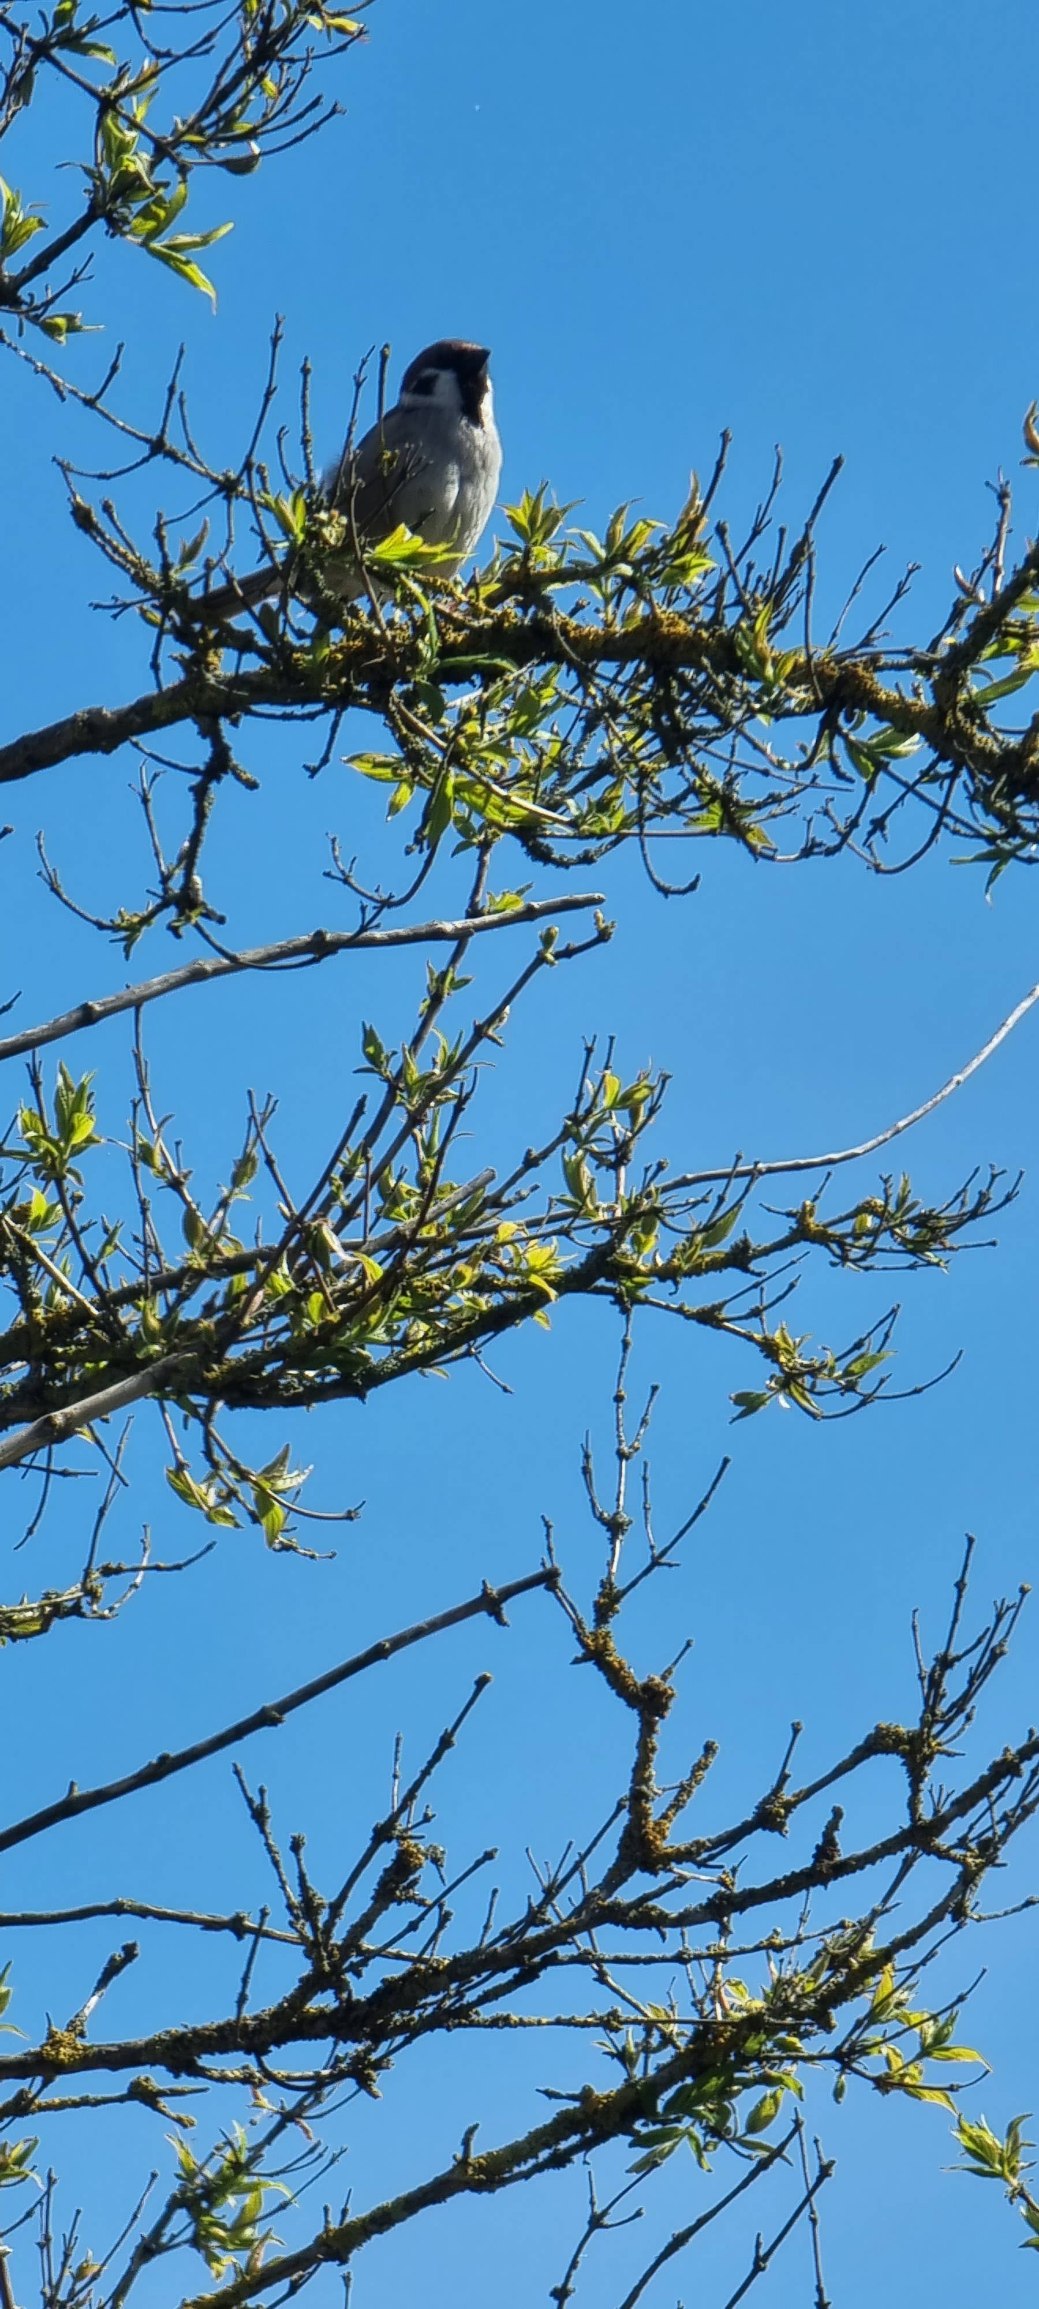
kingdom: Animalia
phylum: Chordata
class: Aves
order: Passeriformes
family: Passeridae
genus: Passer
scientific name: Passer montanus
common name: Skovspurv
